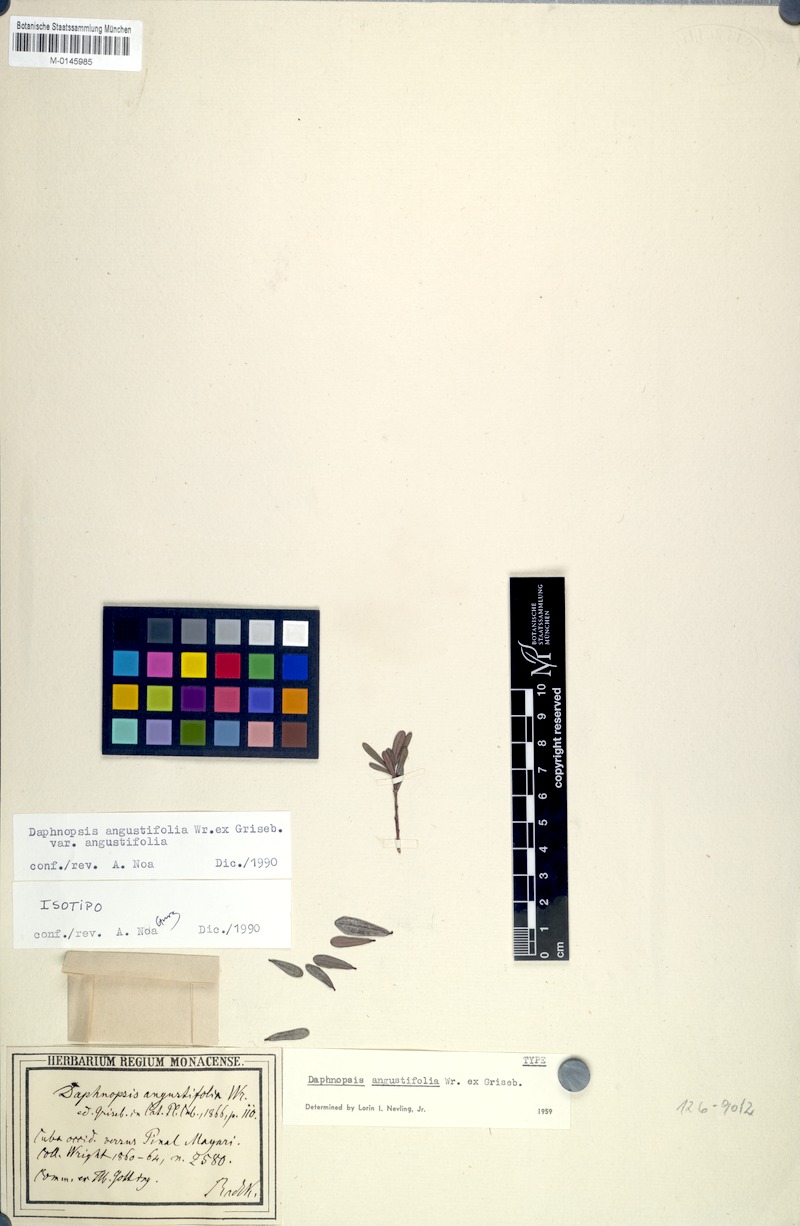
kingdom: Plantae
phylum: Tracheophyta
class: Magnoliopsida
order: Malvales
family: Thymelaeaceae
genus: Daphnopsis
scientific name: Daphnopsis angustifolia
